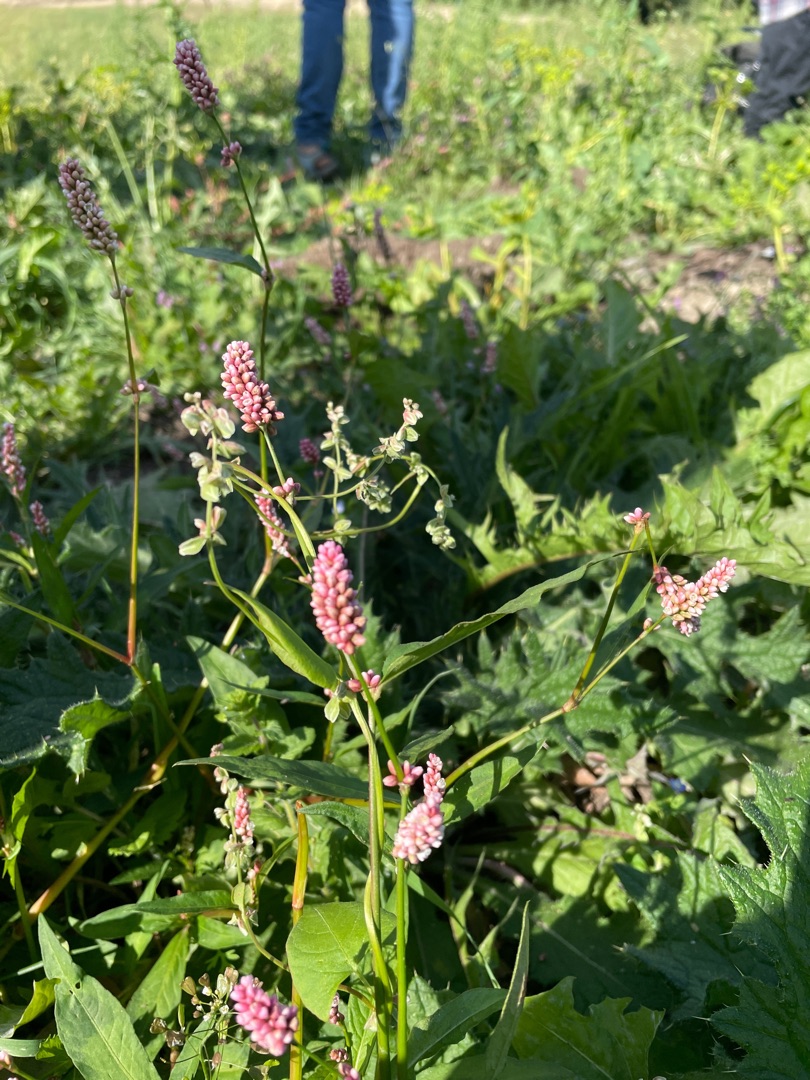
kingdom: Plantae
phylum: Tracheophyta
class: Magnoliopsida
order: Caryophyllales
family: Polygonaceae
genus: Persicaria
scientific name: Persicaria maculosa
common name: Fersken-pileurt
